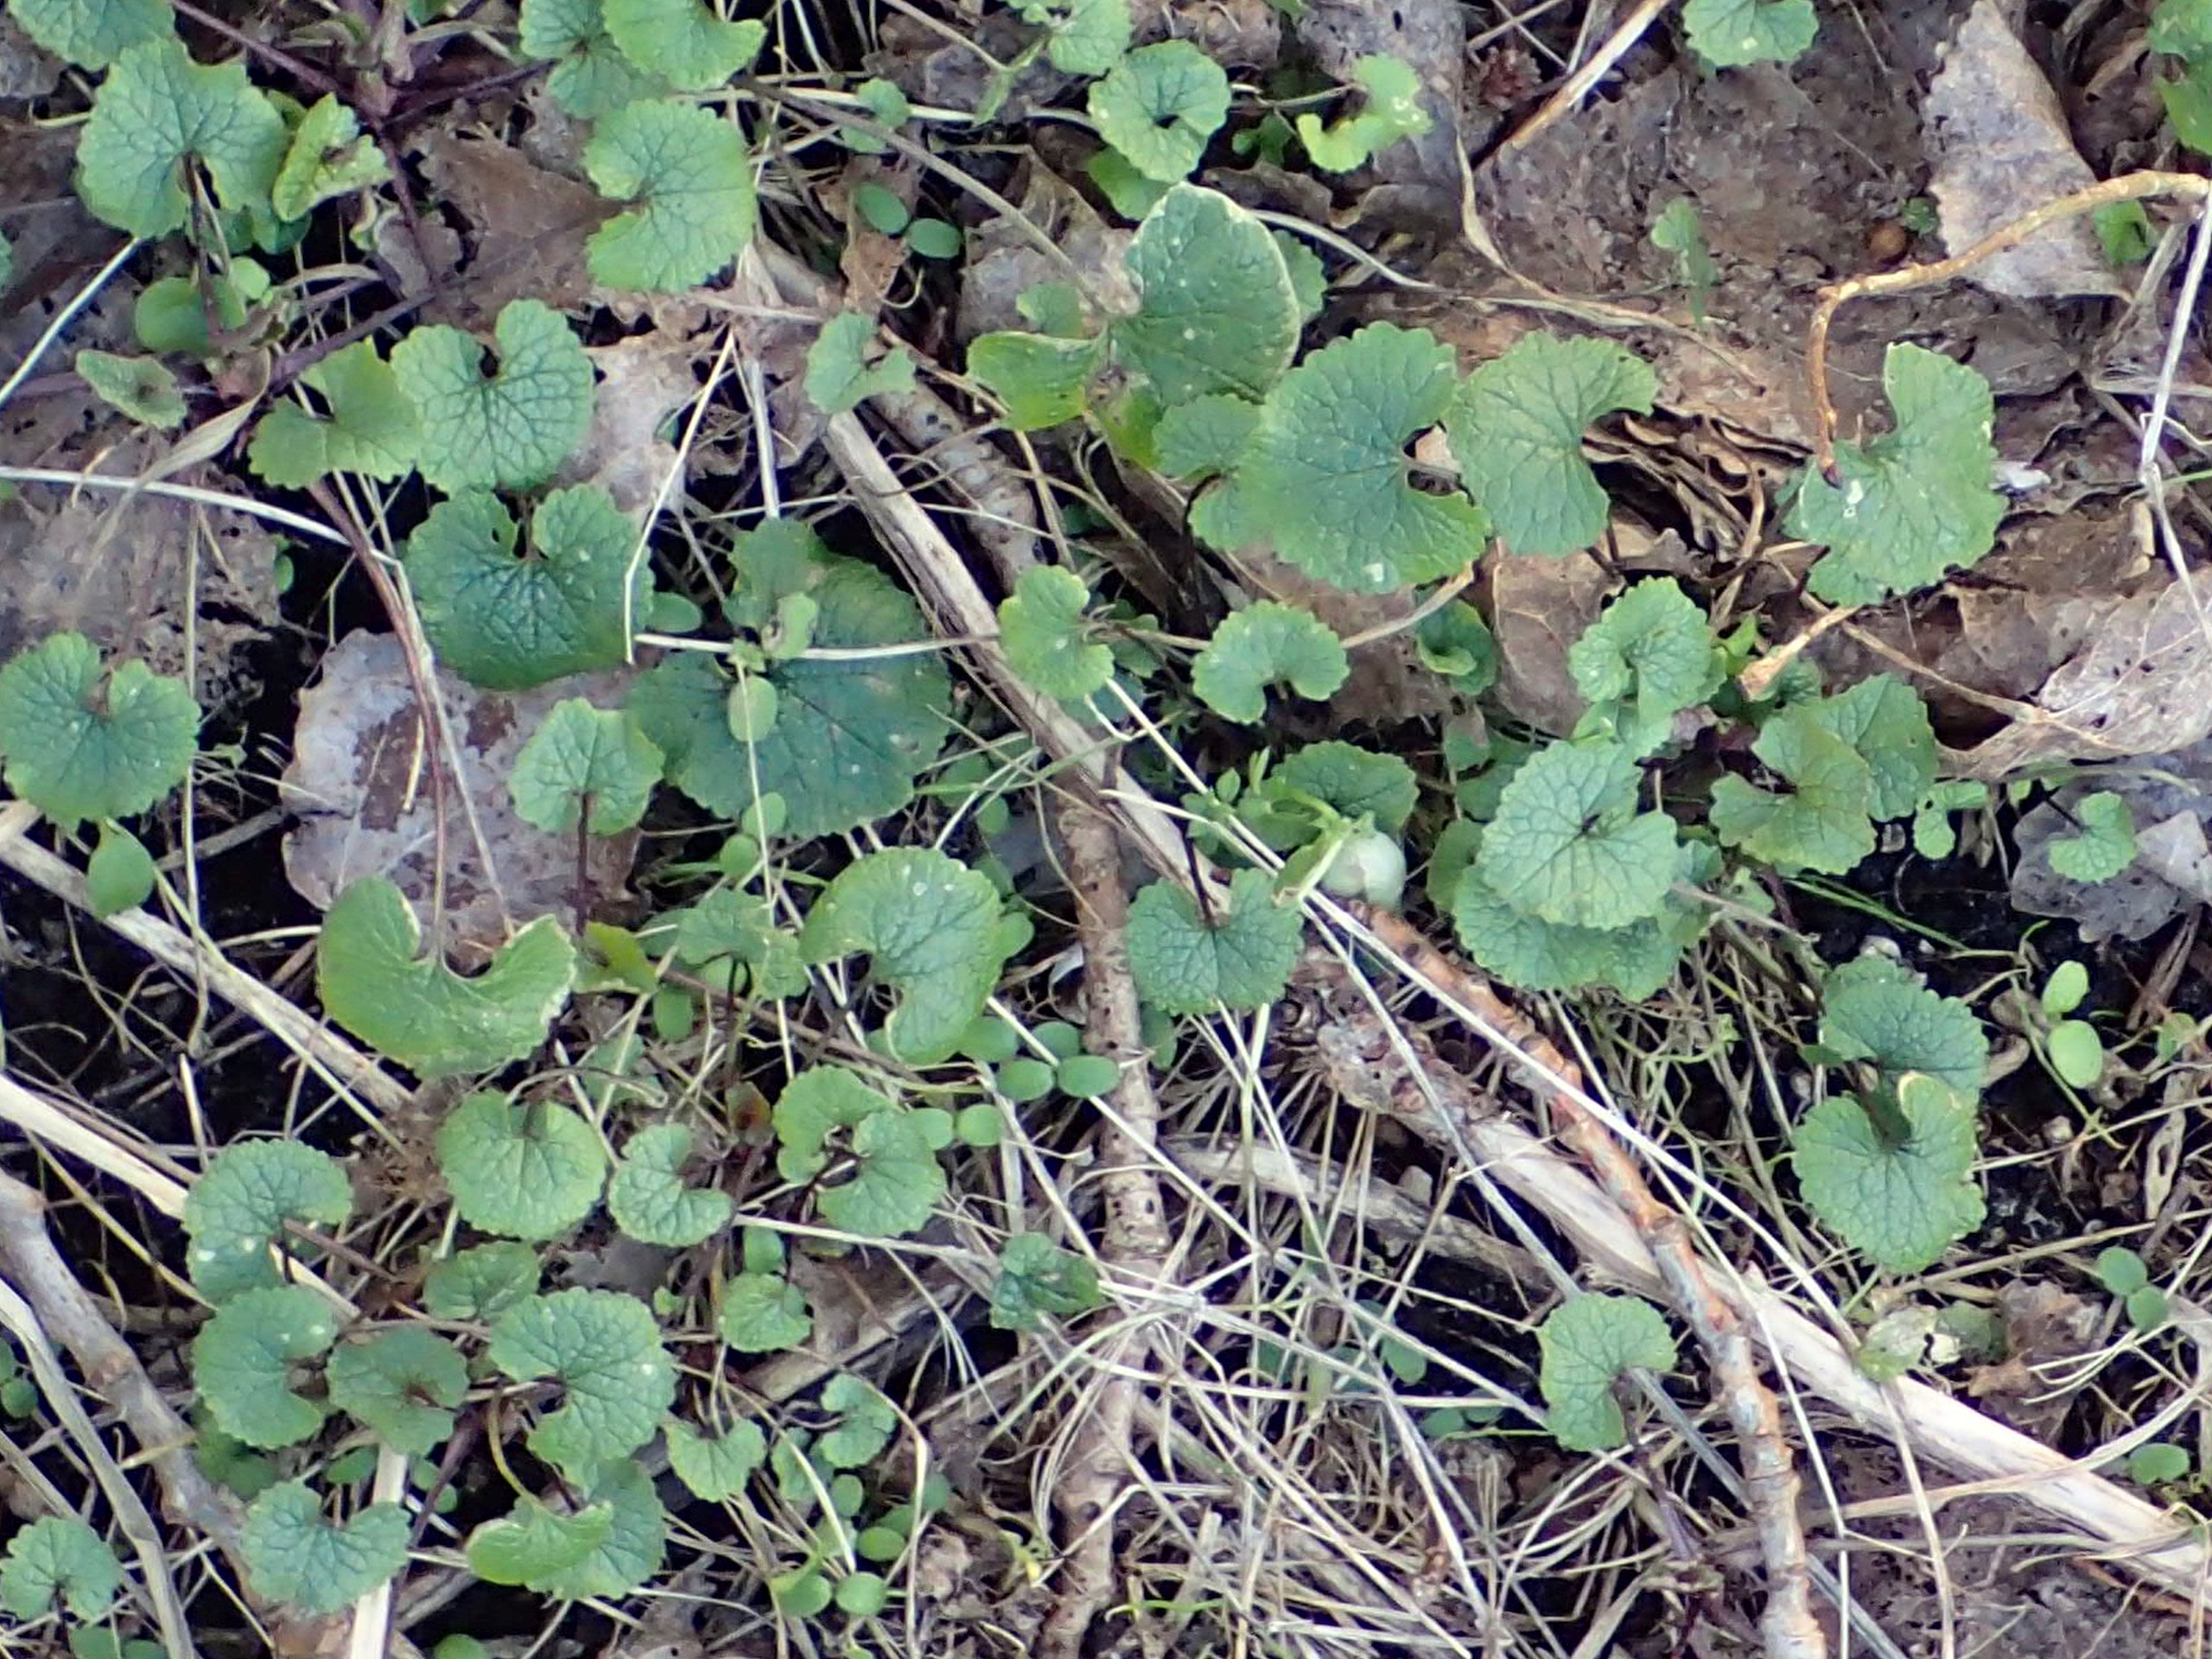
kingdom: Plantae
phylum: Tracheophyta
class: Magnoliopsida
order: Brassicales
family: Brassicaceae
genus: Alliaria
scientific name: Alliaria petiolata
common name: Løgkarse
